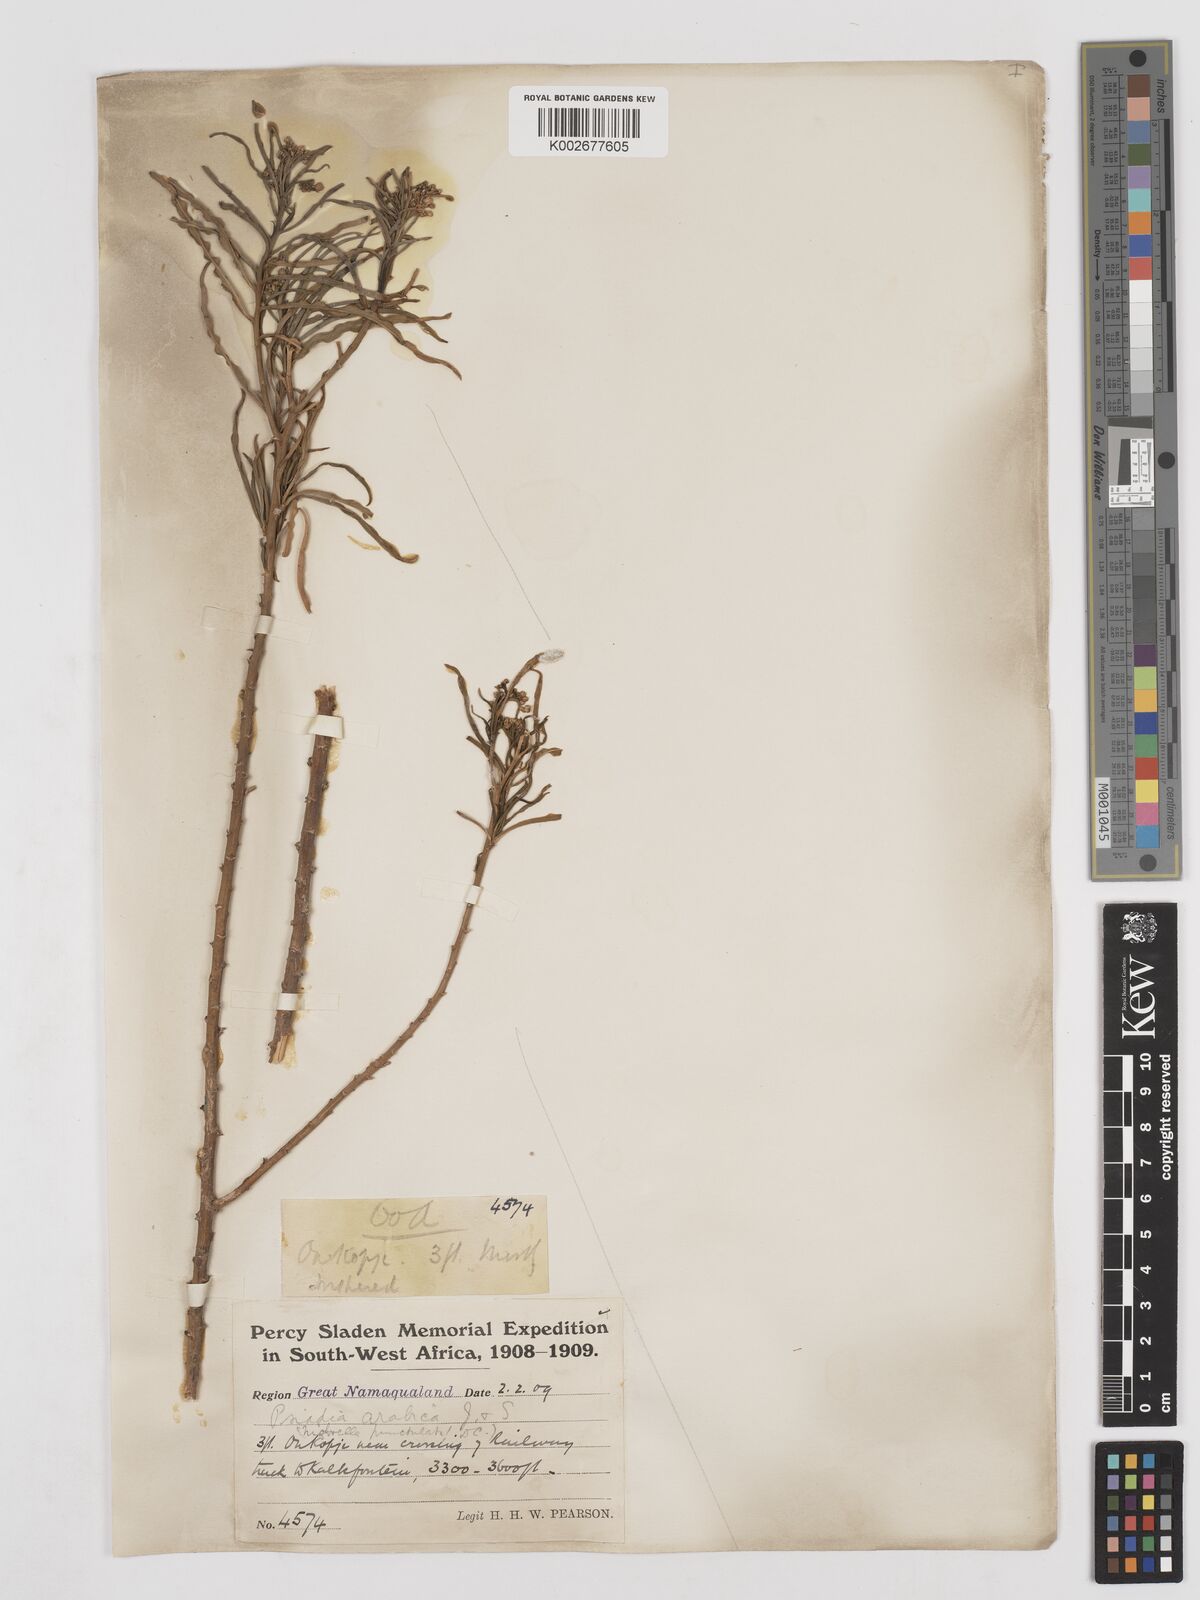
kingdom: Plantae
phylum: Tracheophyta
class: Magnoliopsida
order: Asterales
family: Asteraceae
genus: Psiadia
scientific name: Psiadia punctulata
